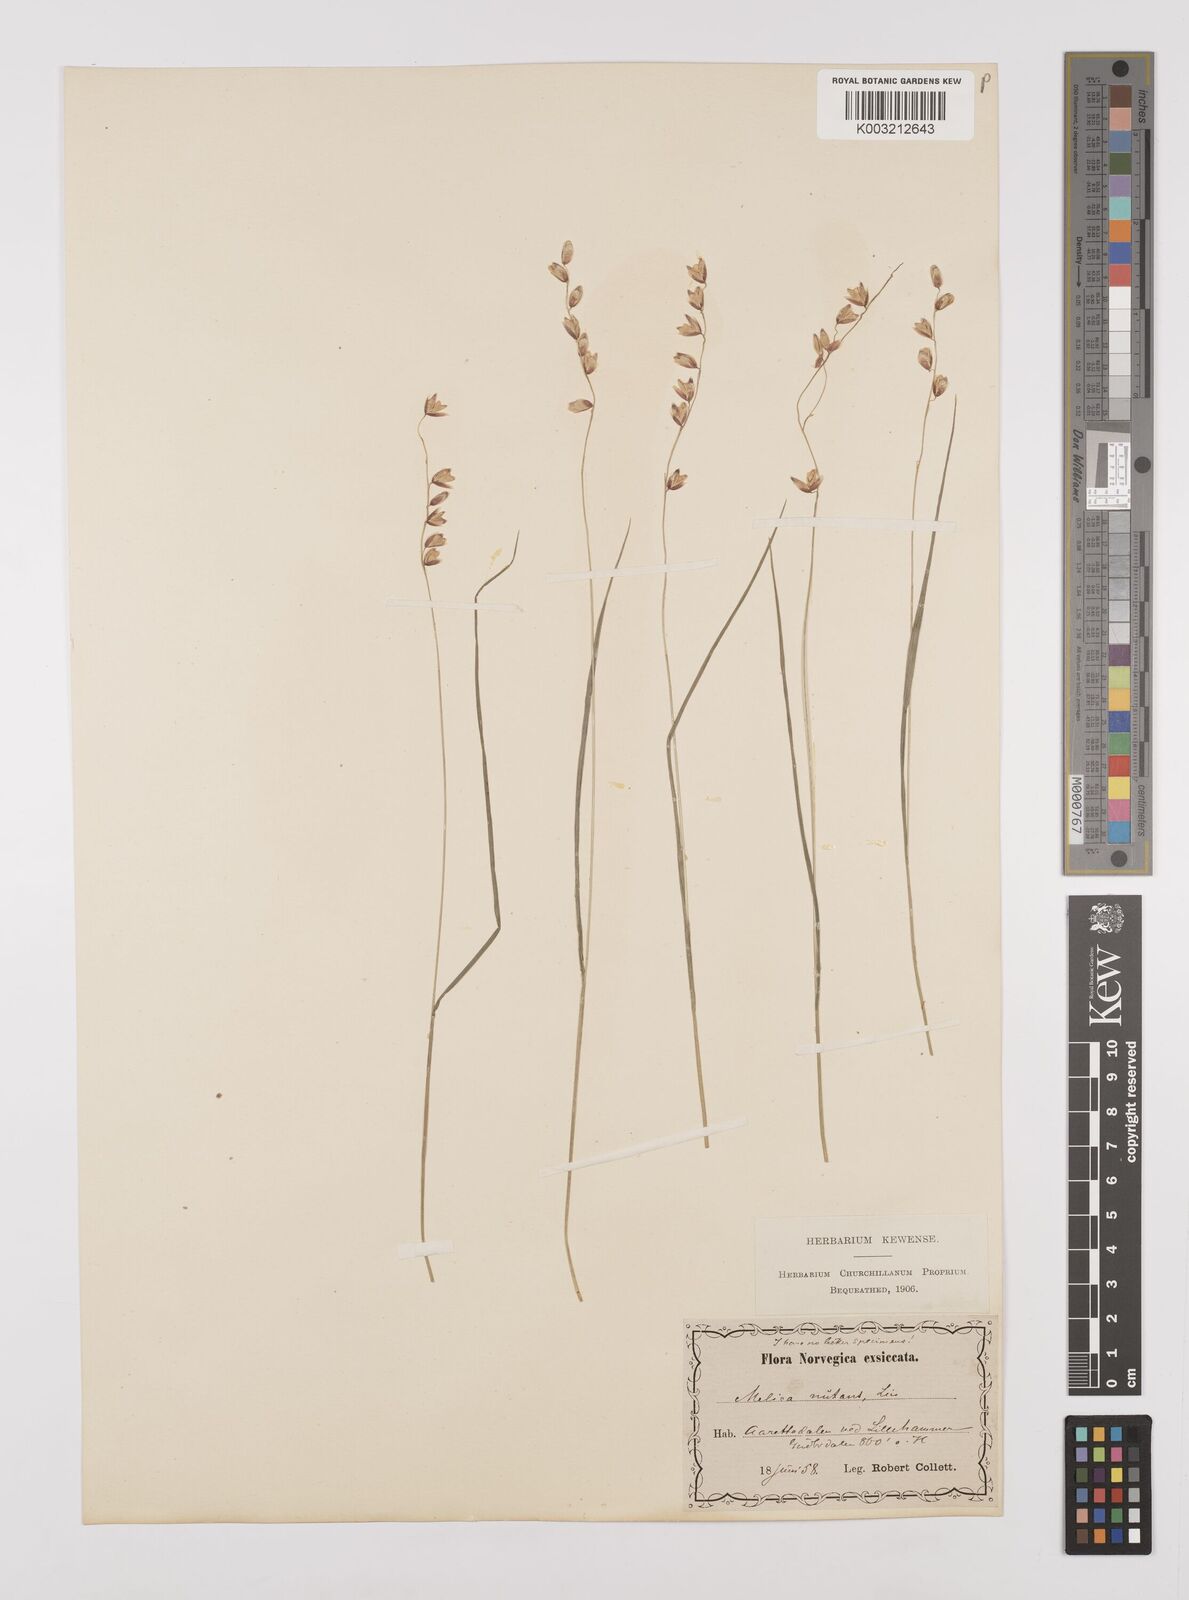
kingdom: Plantae
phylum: Tracheophyta
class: Liliopsida
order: Poales
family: Poaceae
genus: Melica
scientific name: Melica
